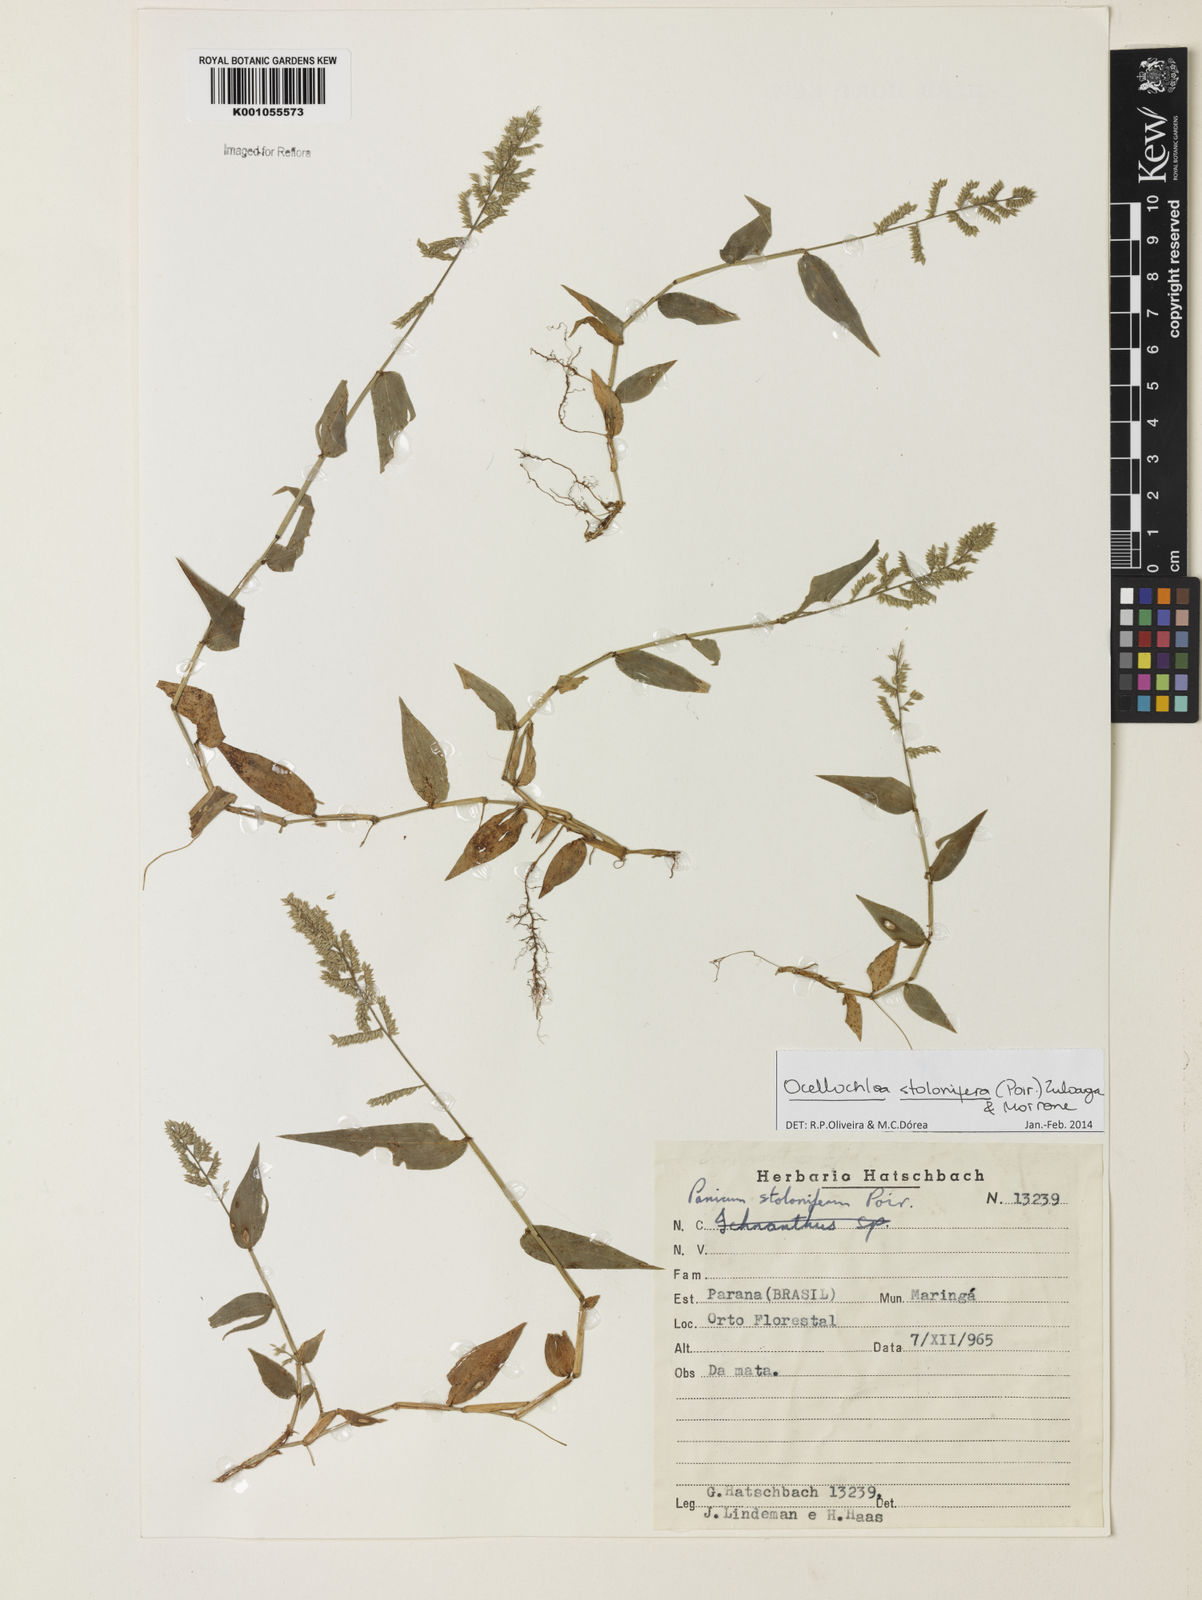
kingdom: Plantae
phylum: Tracheophyta
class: Liliopsida
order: Poales
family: Poaceae
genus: Ocellochloa
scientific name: Ocellochloa stolonifera
